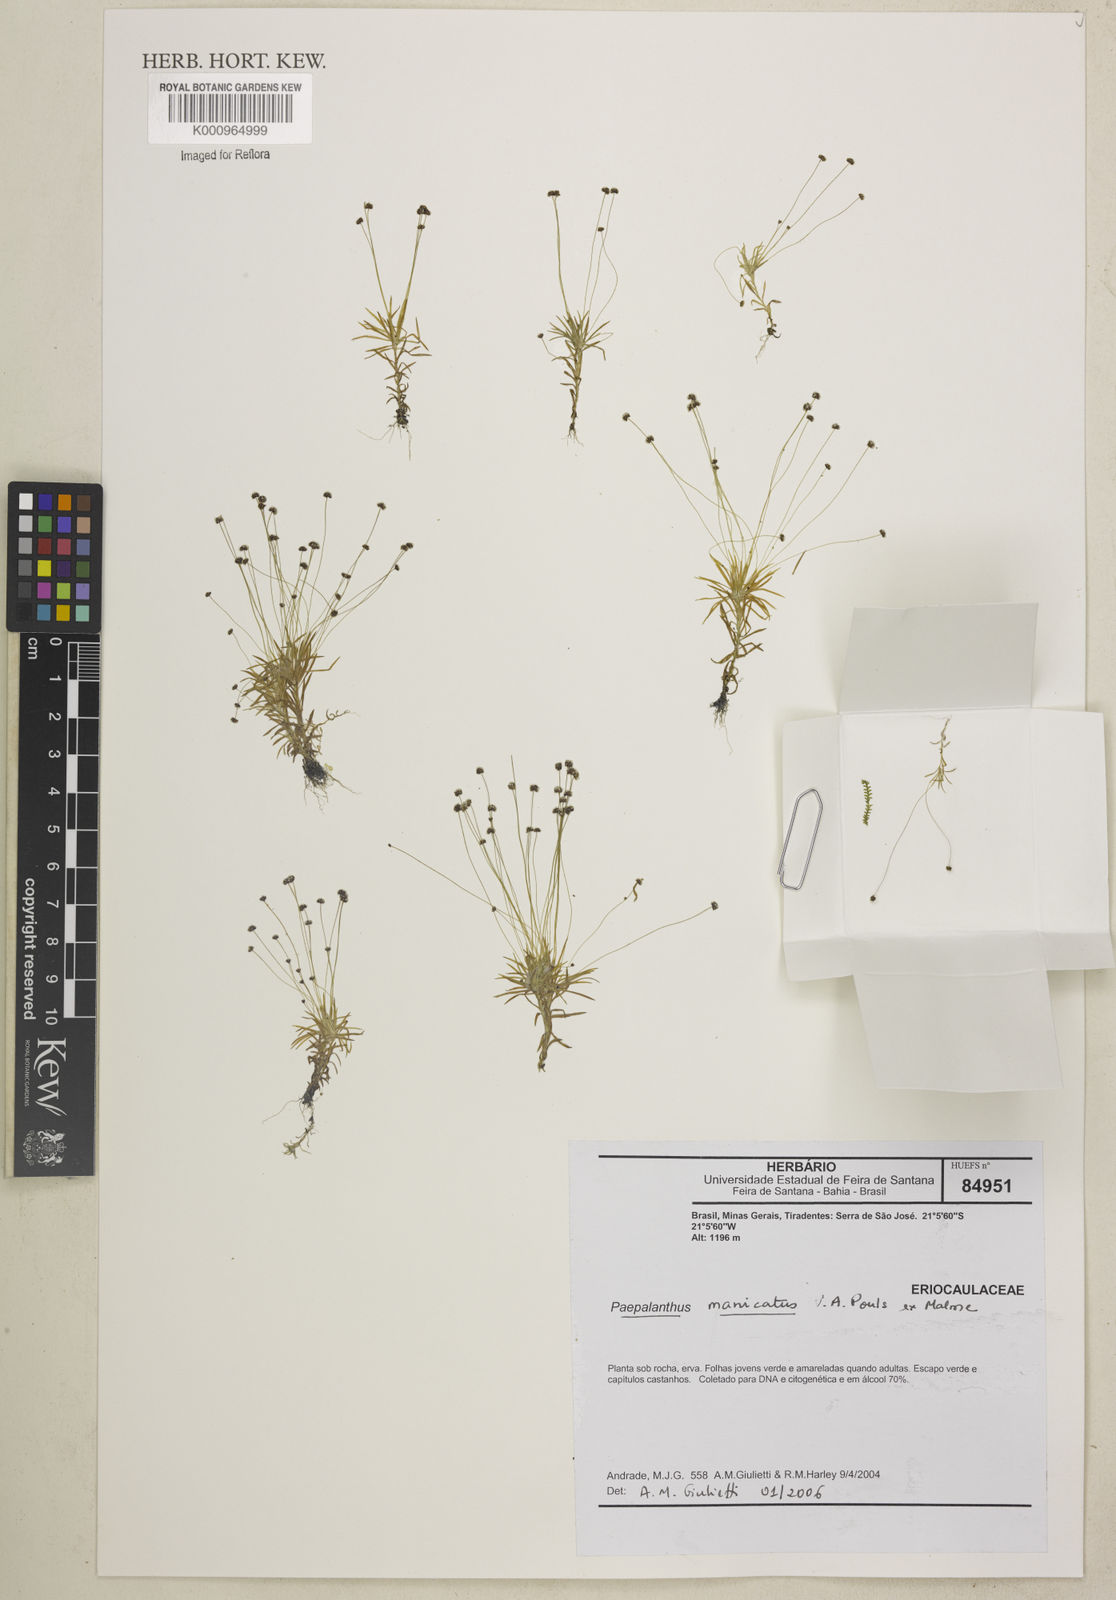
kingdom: Plantae
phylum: Tracheophyta
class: Liliopsida
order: Poales
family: Eriocaulaceae
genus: Paepalanthus
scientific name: Paepalanthus manicatus
